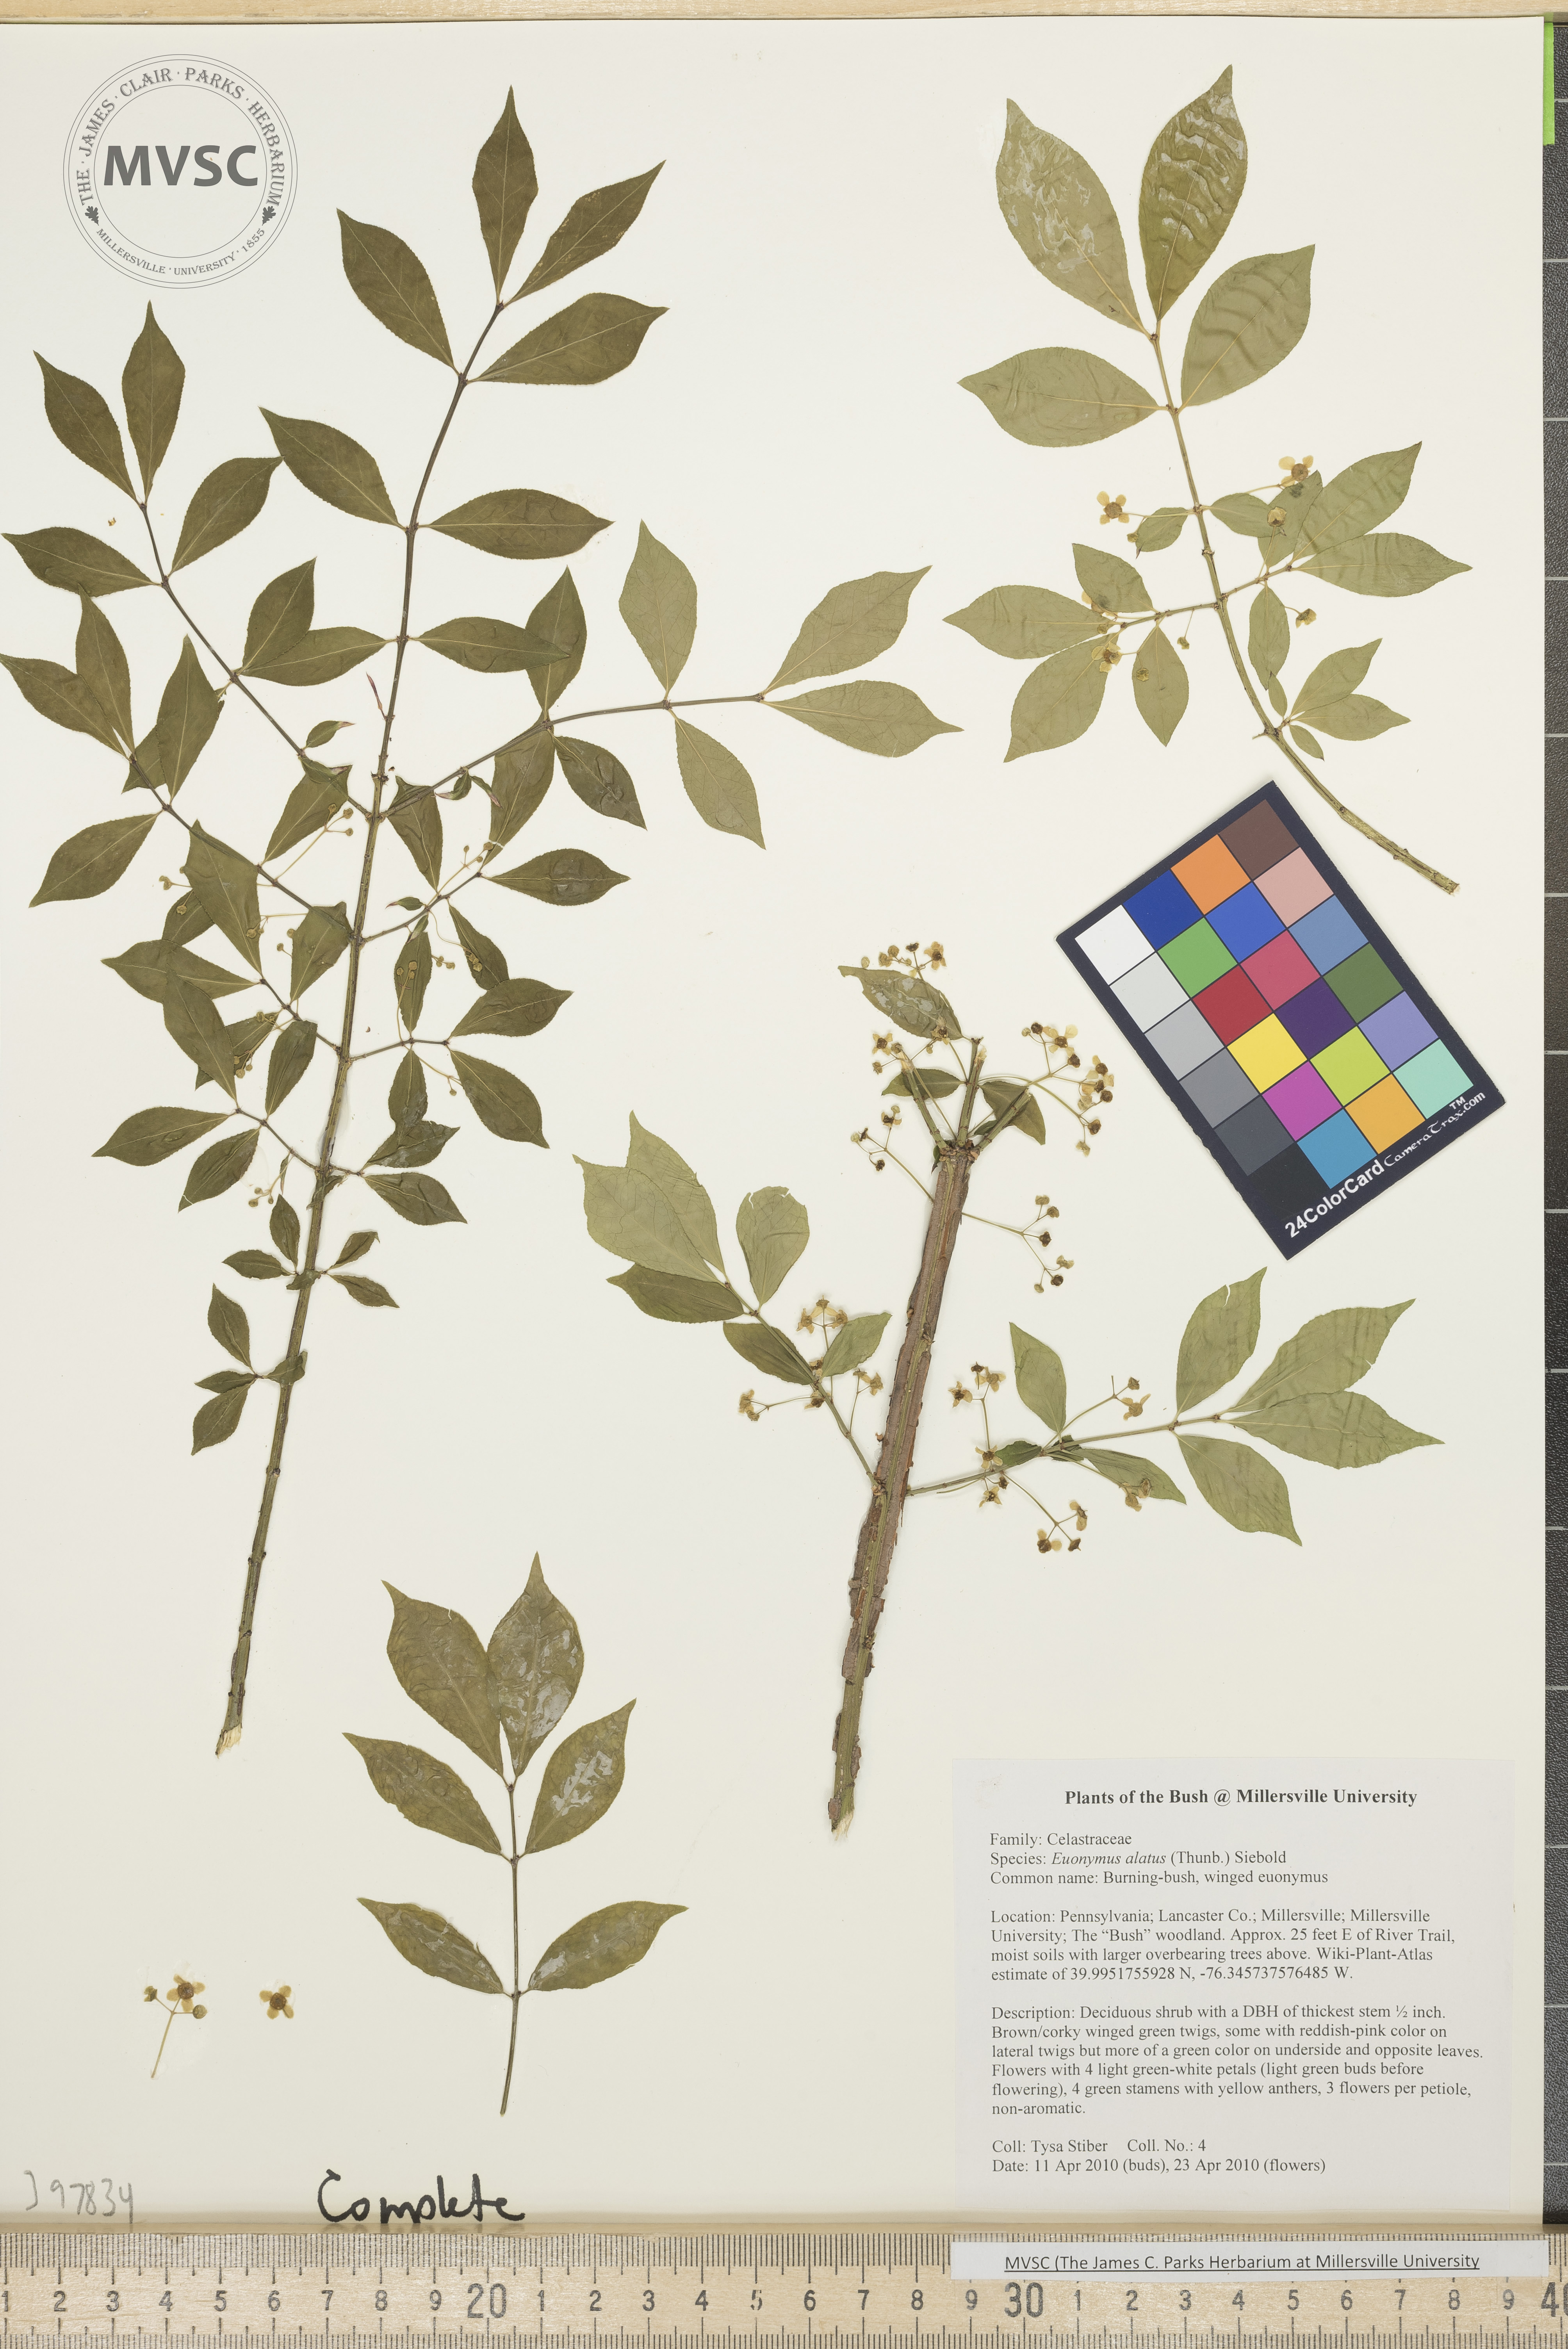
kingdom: Plantae
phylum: Tracheophyta
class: Magnoliopsida
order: Celastrales
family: Celastraceae
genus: Euonymus
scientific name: Euonymus alatus
